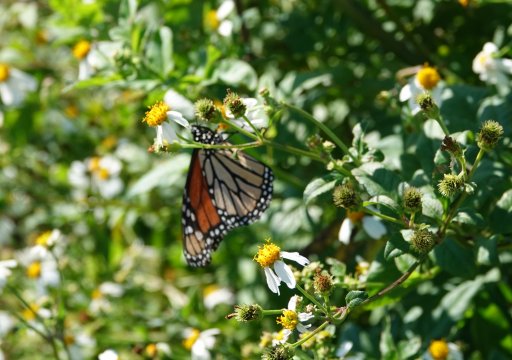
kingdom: Animalia
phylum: Arthropoda
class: Insecta
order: Lepidoptera
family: Nymphalidae
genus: Danaus
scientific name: Danaus plexippus
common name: Monarch
